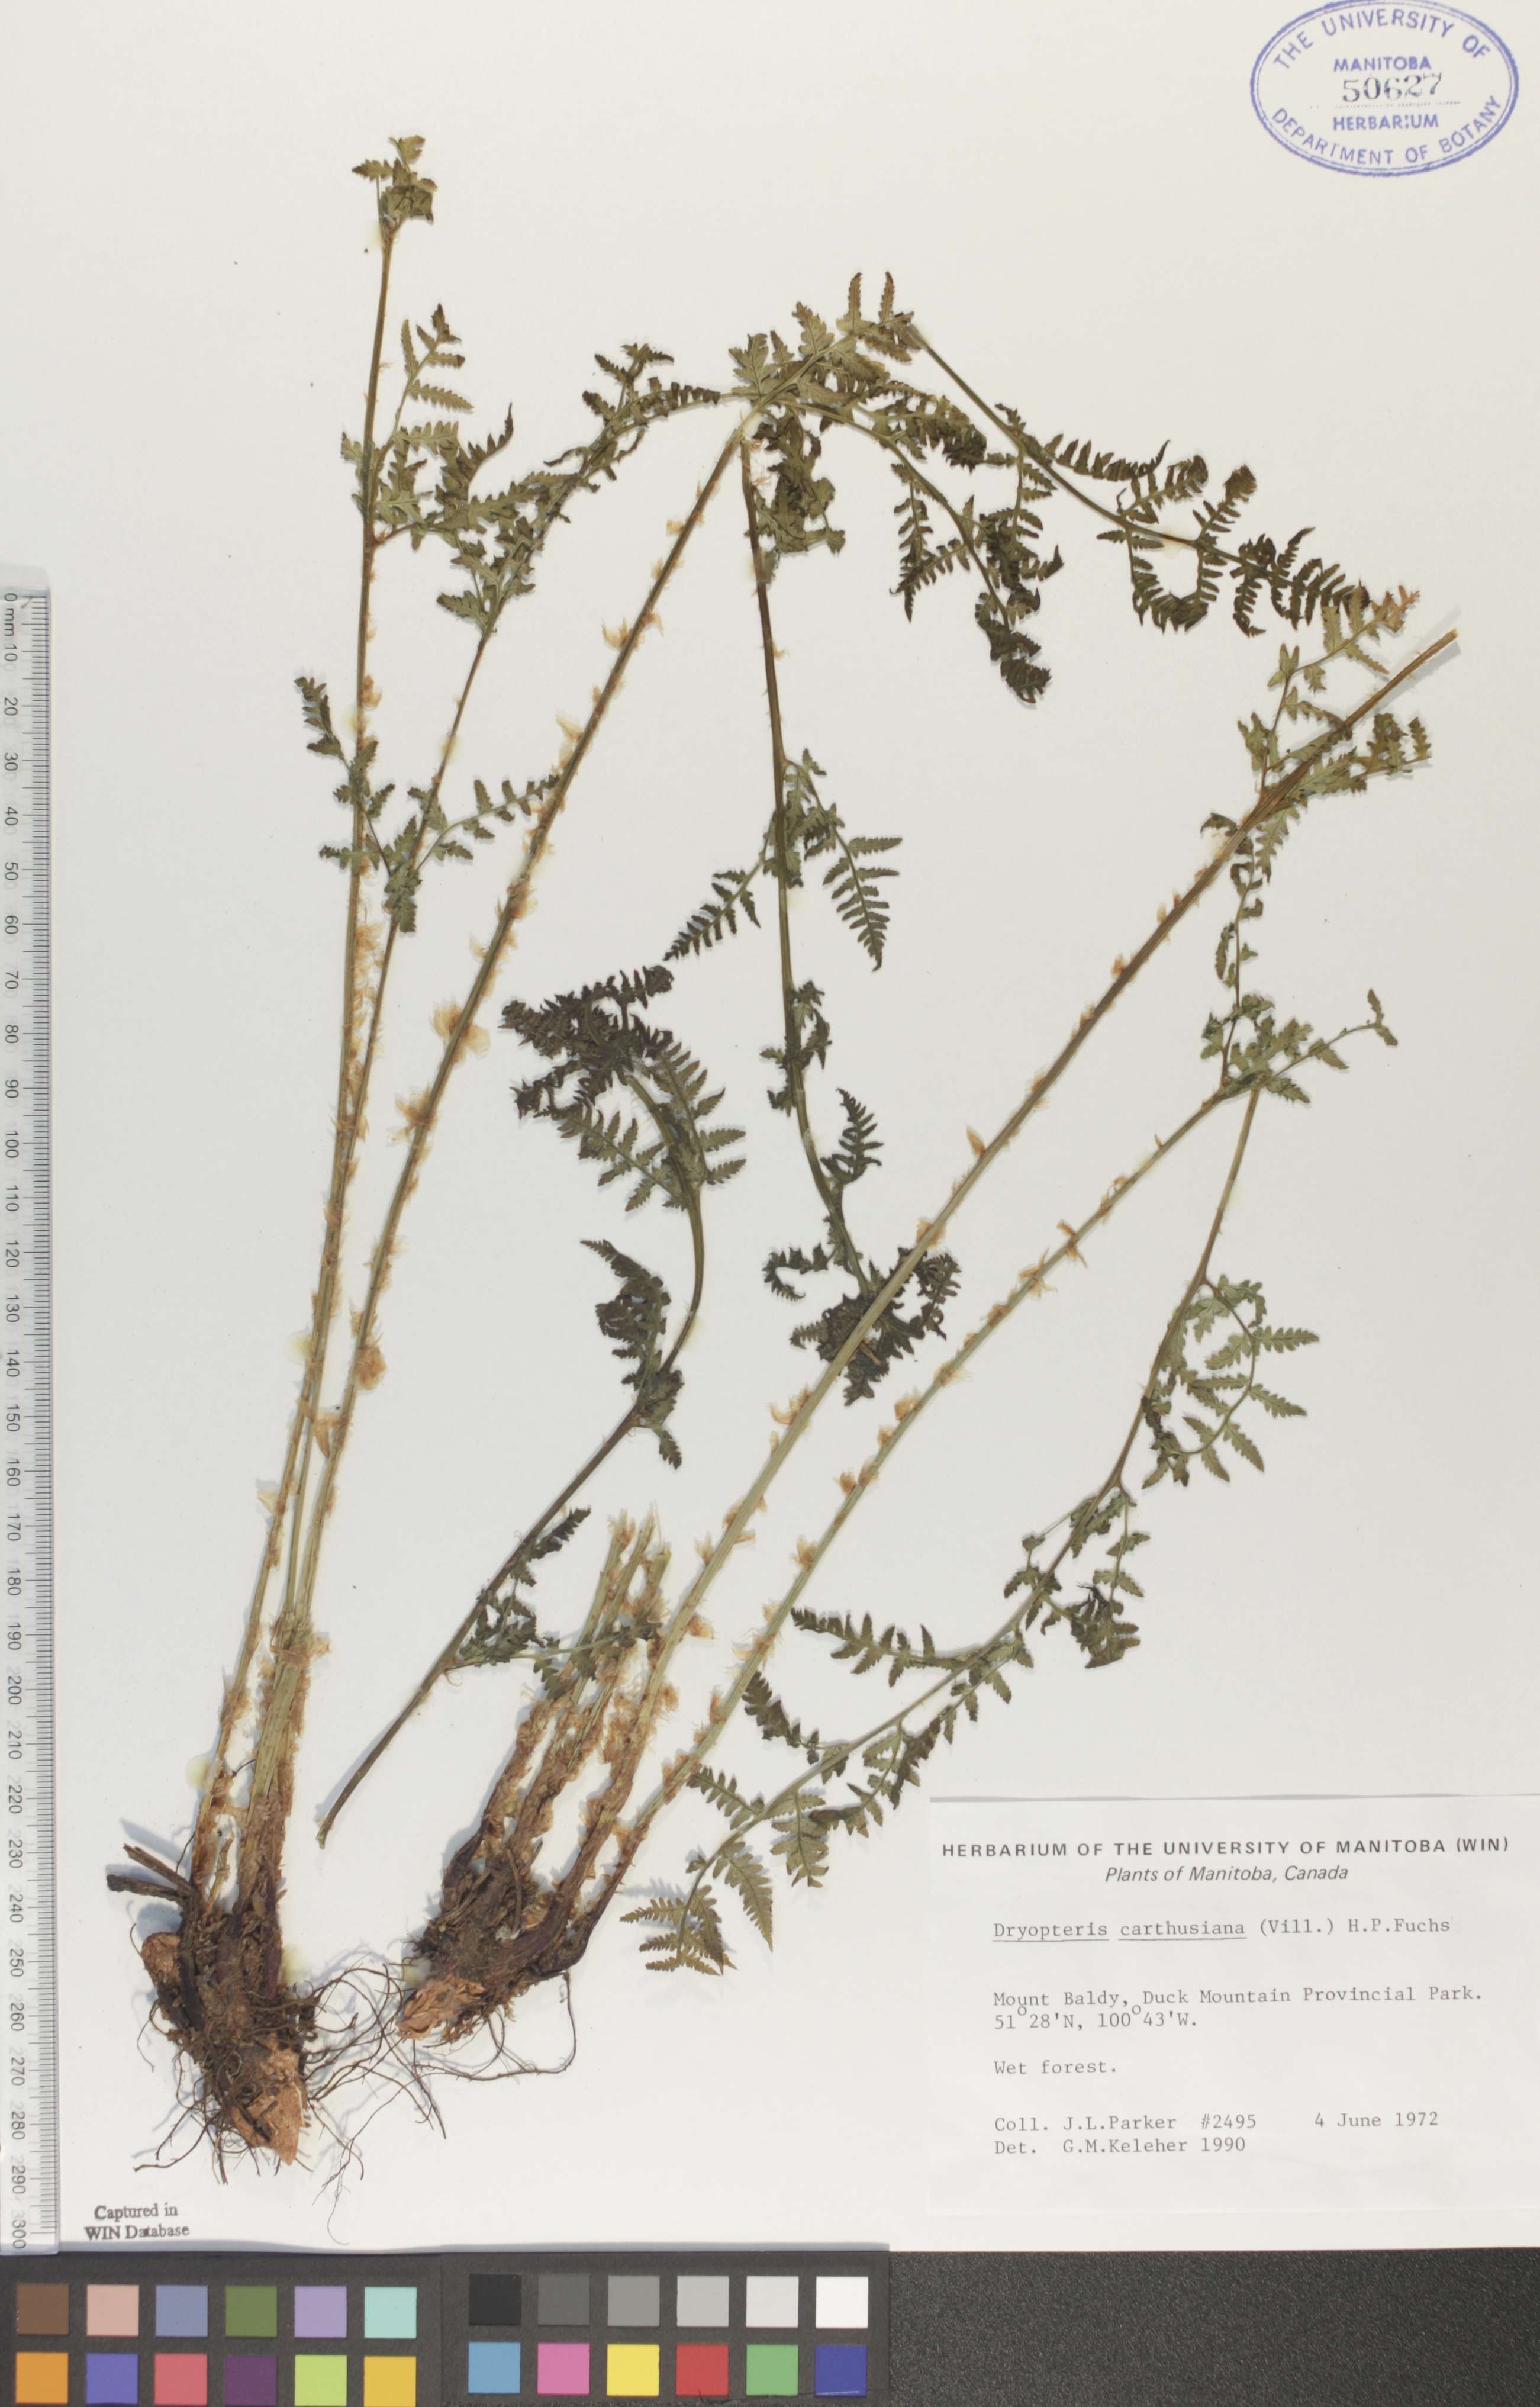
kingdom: Plantae
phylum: Tracheophyta
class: Polypodiopsida
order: Polypodiales
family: Dryopteridaceae
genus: Dryopteris
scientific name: Dryopteris carthusiana
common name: Narrow buckler-fern
